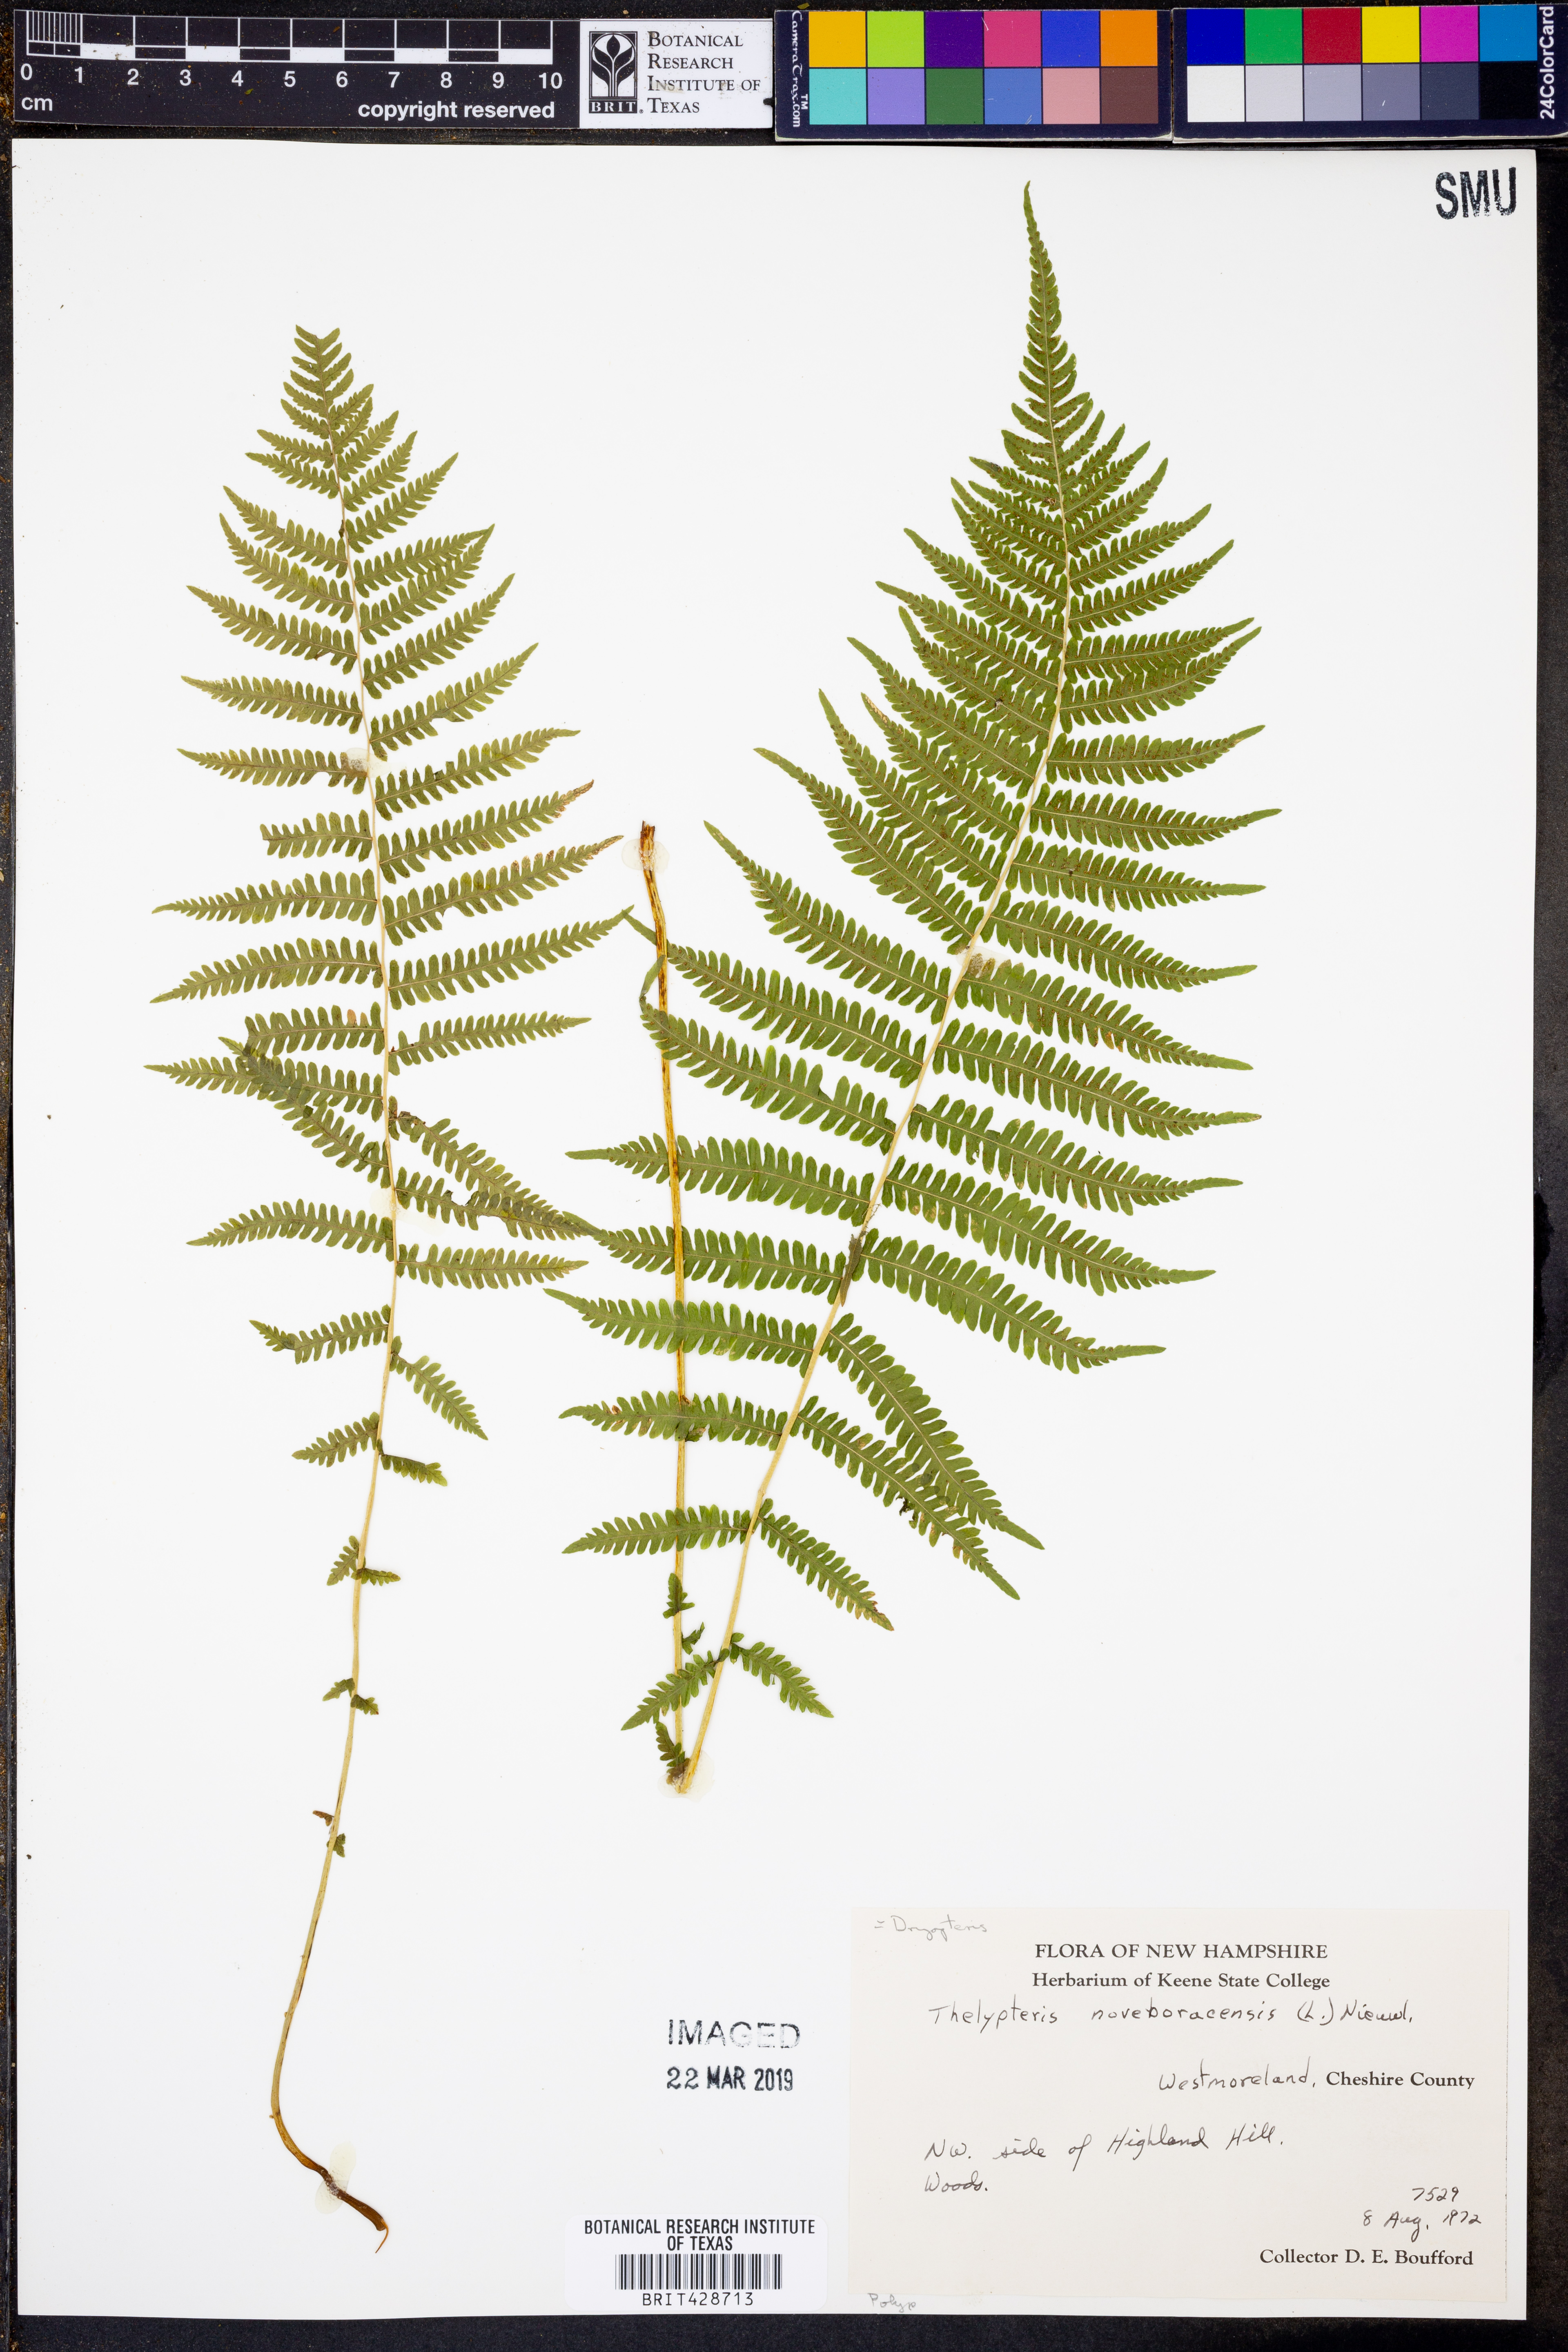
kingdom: Plantae
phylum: Tracheophyta
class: Polypodiopsida
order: Polypodiales
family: Thelypteridaceae
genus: Amauropelta
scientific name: Amauropelta noveboracensis
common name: New york fern
